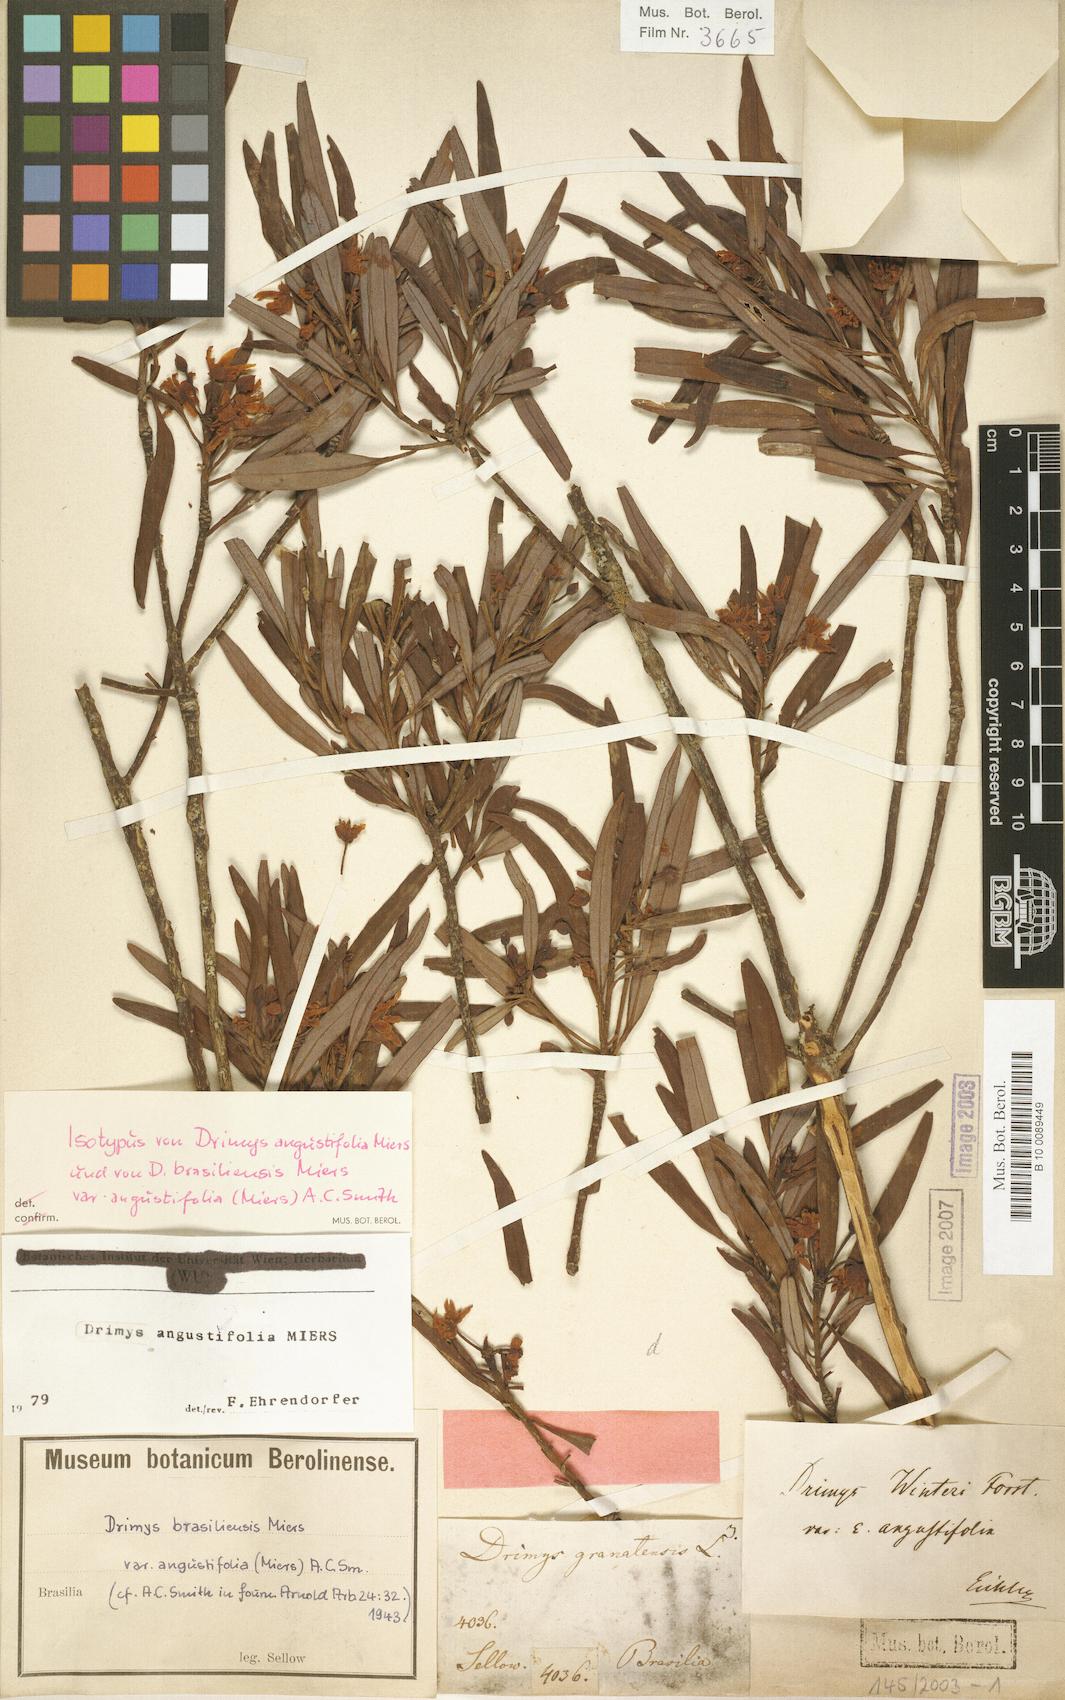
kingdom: Plantae
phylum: Tracheophyta
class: Magnoliopsida
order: Canellales
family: Winteraceae
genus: Drimys
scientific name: Drimys angustifolia
